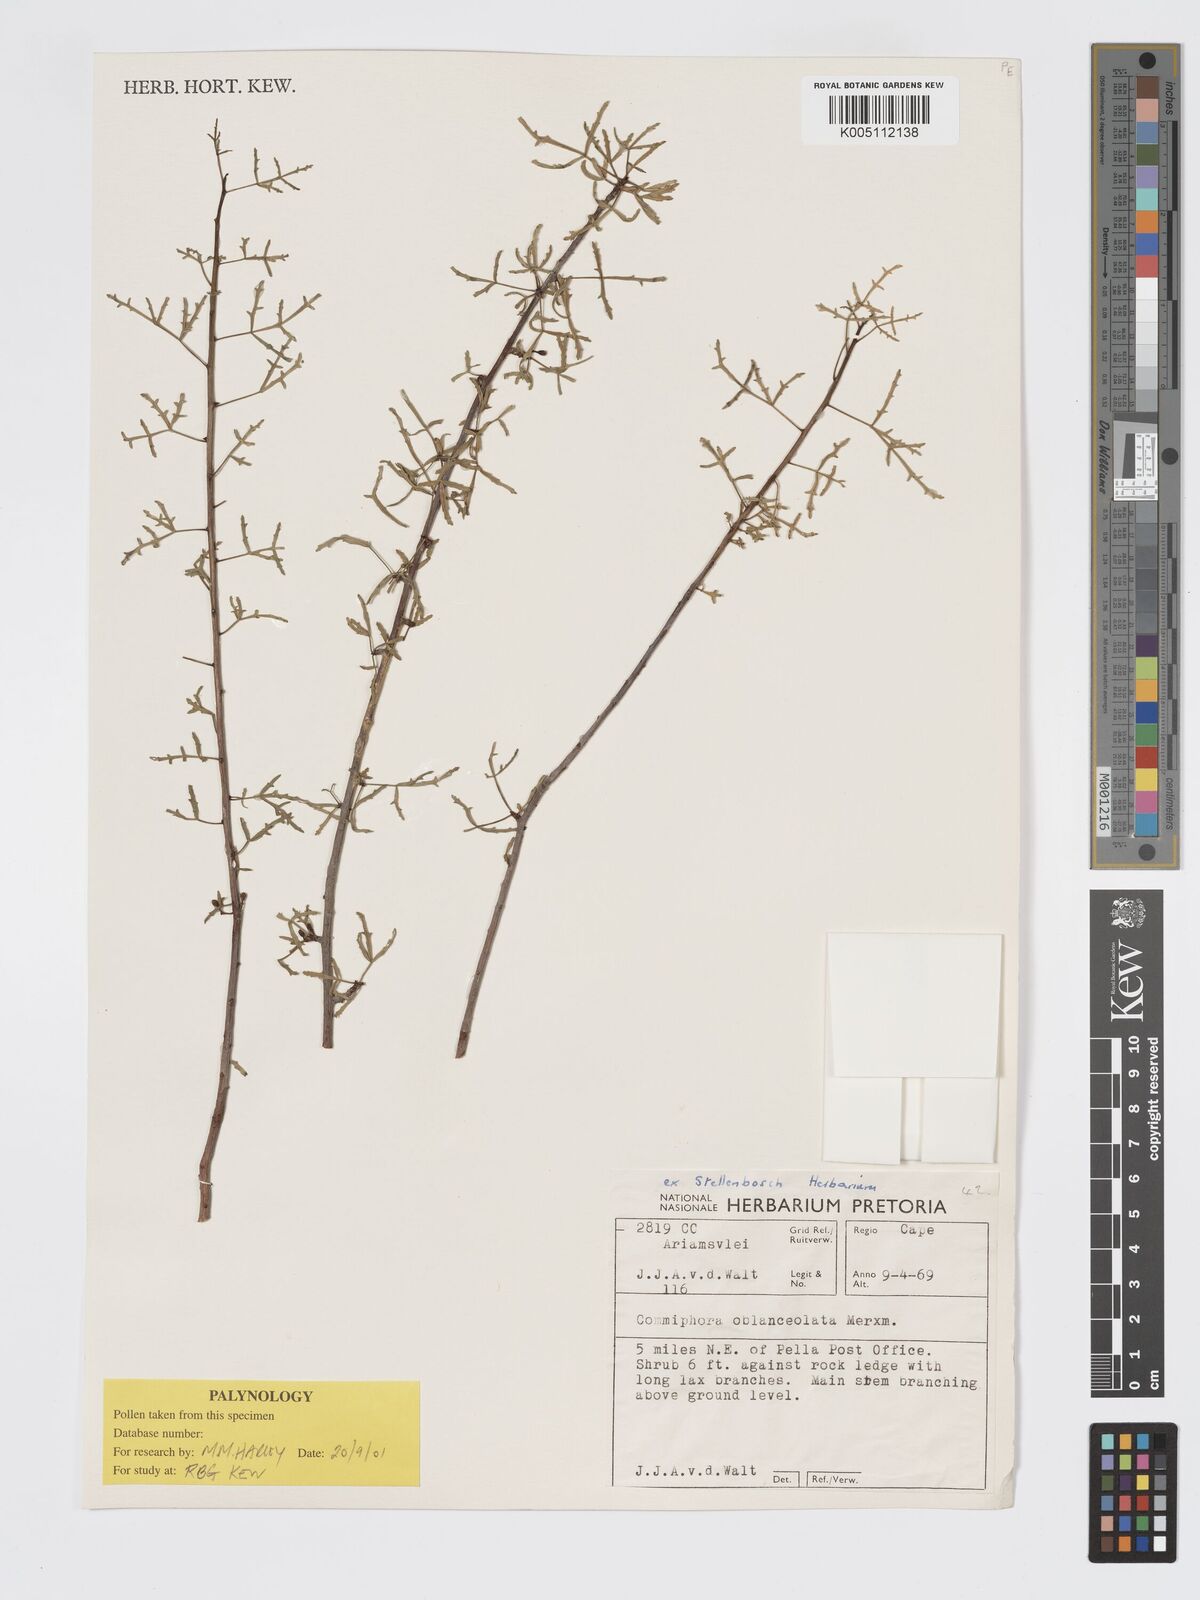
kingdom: Plantae
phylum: Tracheophyta
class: Magnoliopsida
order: Sapindales
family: Burseraceae
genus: Commiphora
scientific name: Commiphora gracilifrondosa
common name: Karee-leaved commiphora
